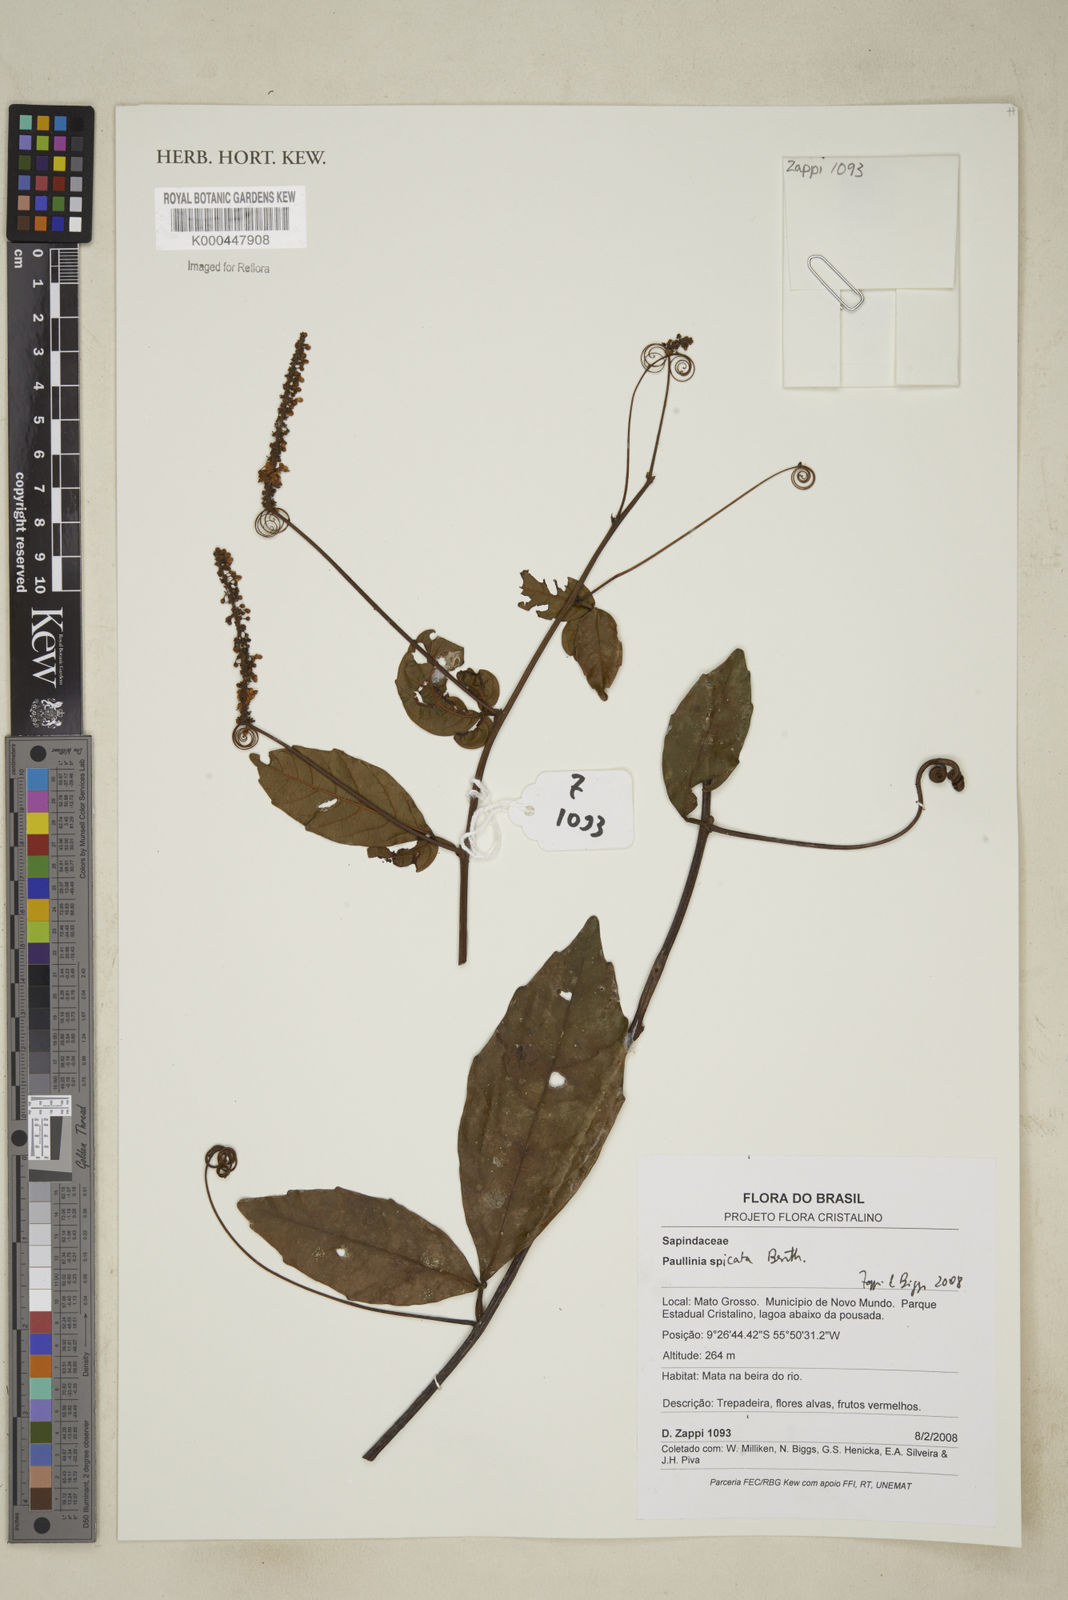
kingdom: Plantae
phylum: Tracheophyta
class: Magnoliopsida
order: Sapindales
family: Sapindaceae
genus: Paullinia
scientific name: Paullinia spicata
